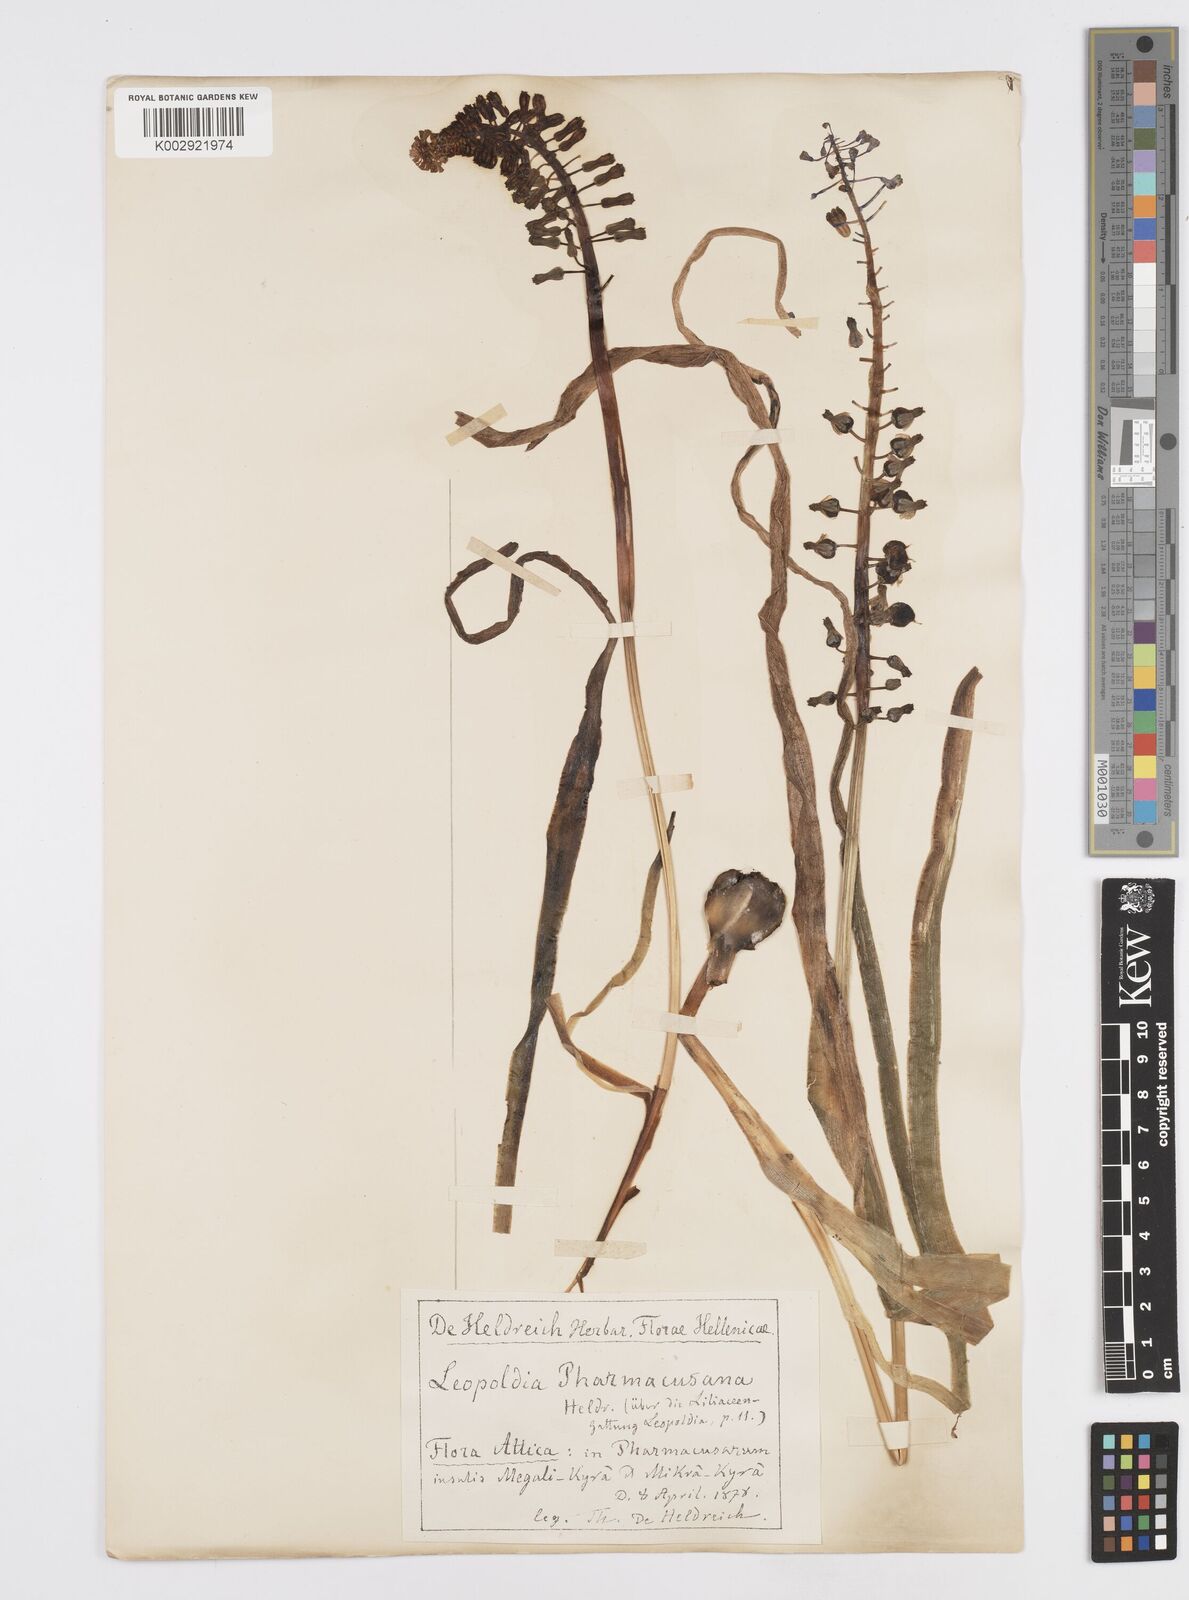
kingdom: Plantae
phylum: Tracheophyta
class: Liliopsida
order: Asparagales
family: Asparagaceae
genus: Muscari
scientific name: Muscari comosum
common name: Tassel hyacinth
